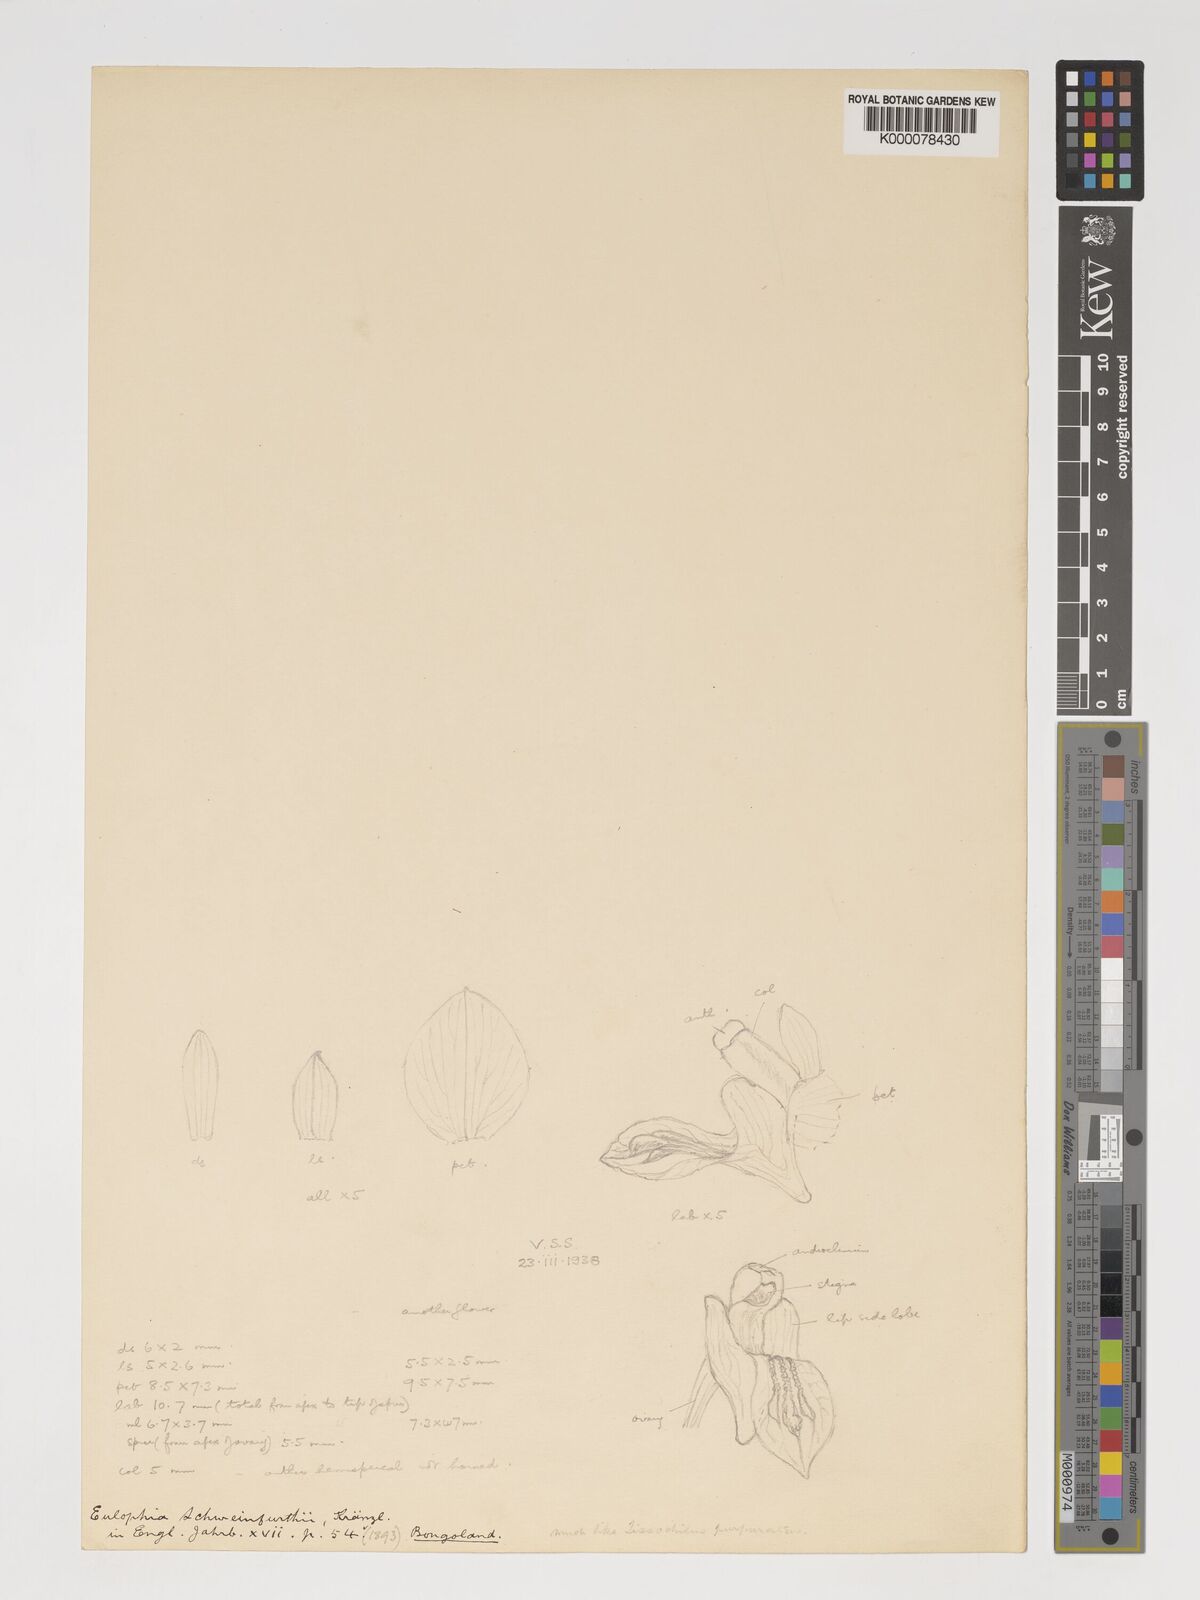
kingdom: Plantae
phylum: Tracheophyta
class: Liliopsida
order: Asparagales
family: Orchidaceae
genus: Eulophia
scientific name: Eulophia schweinfurthii
